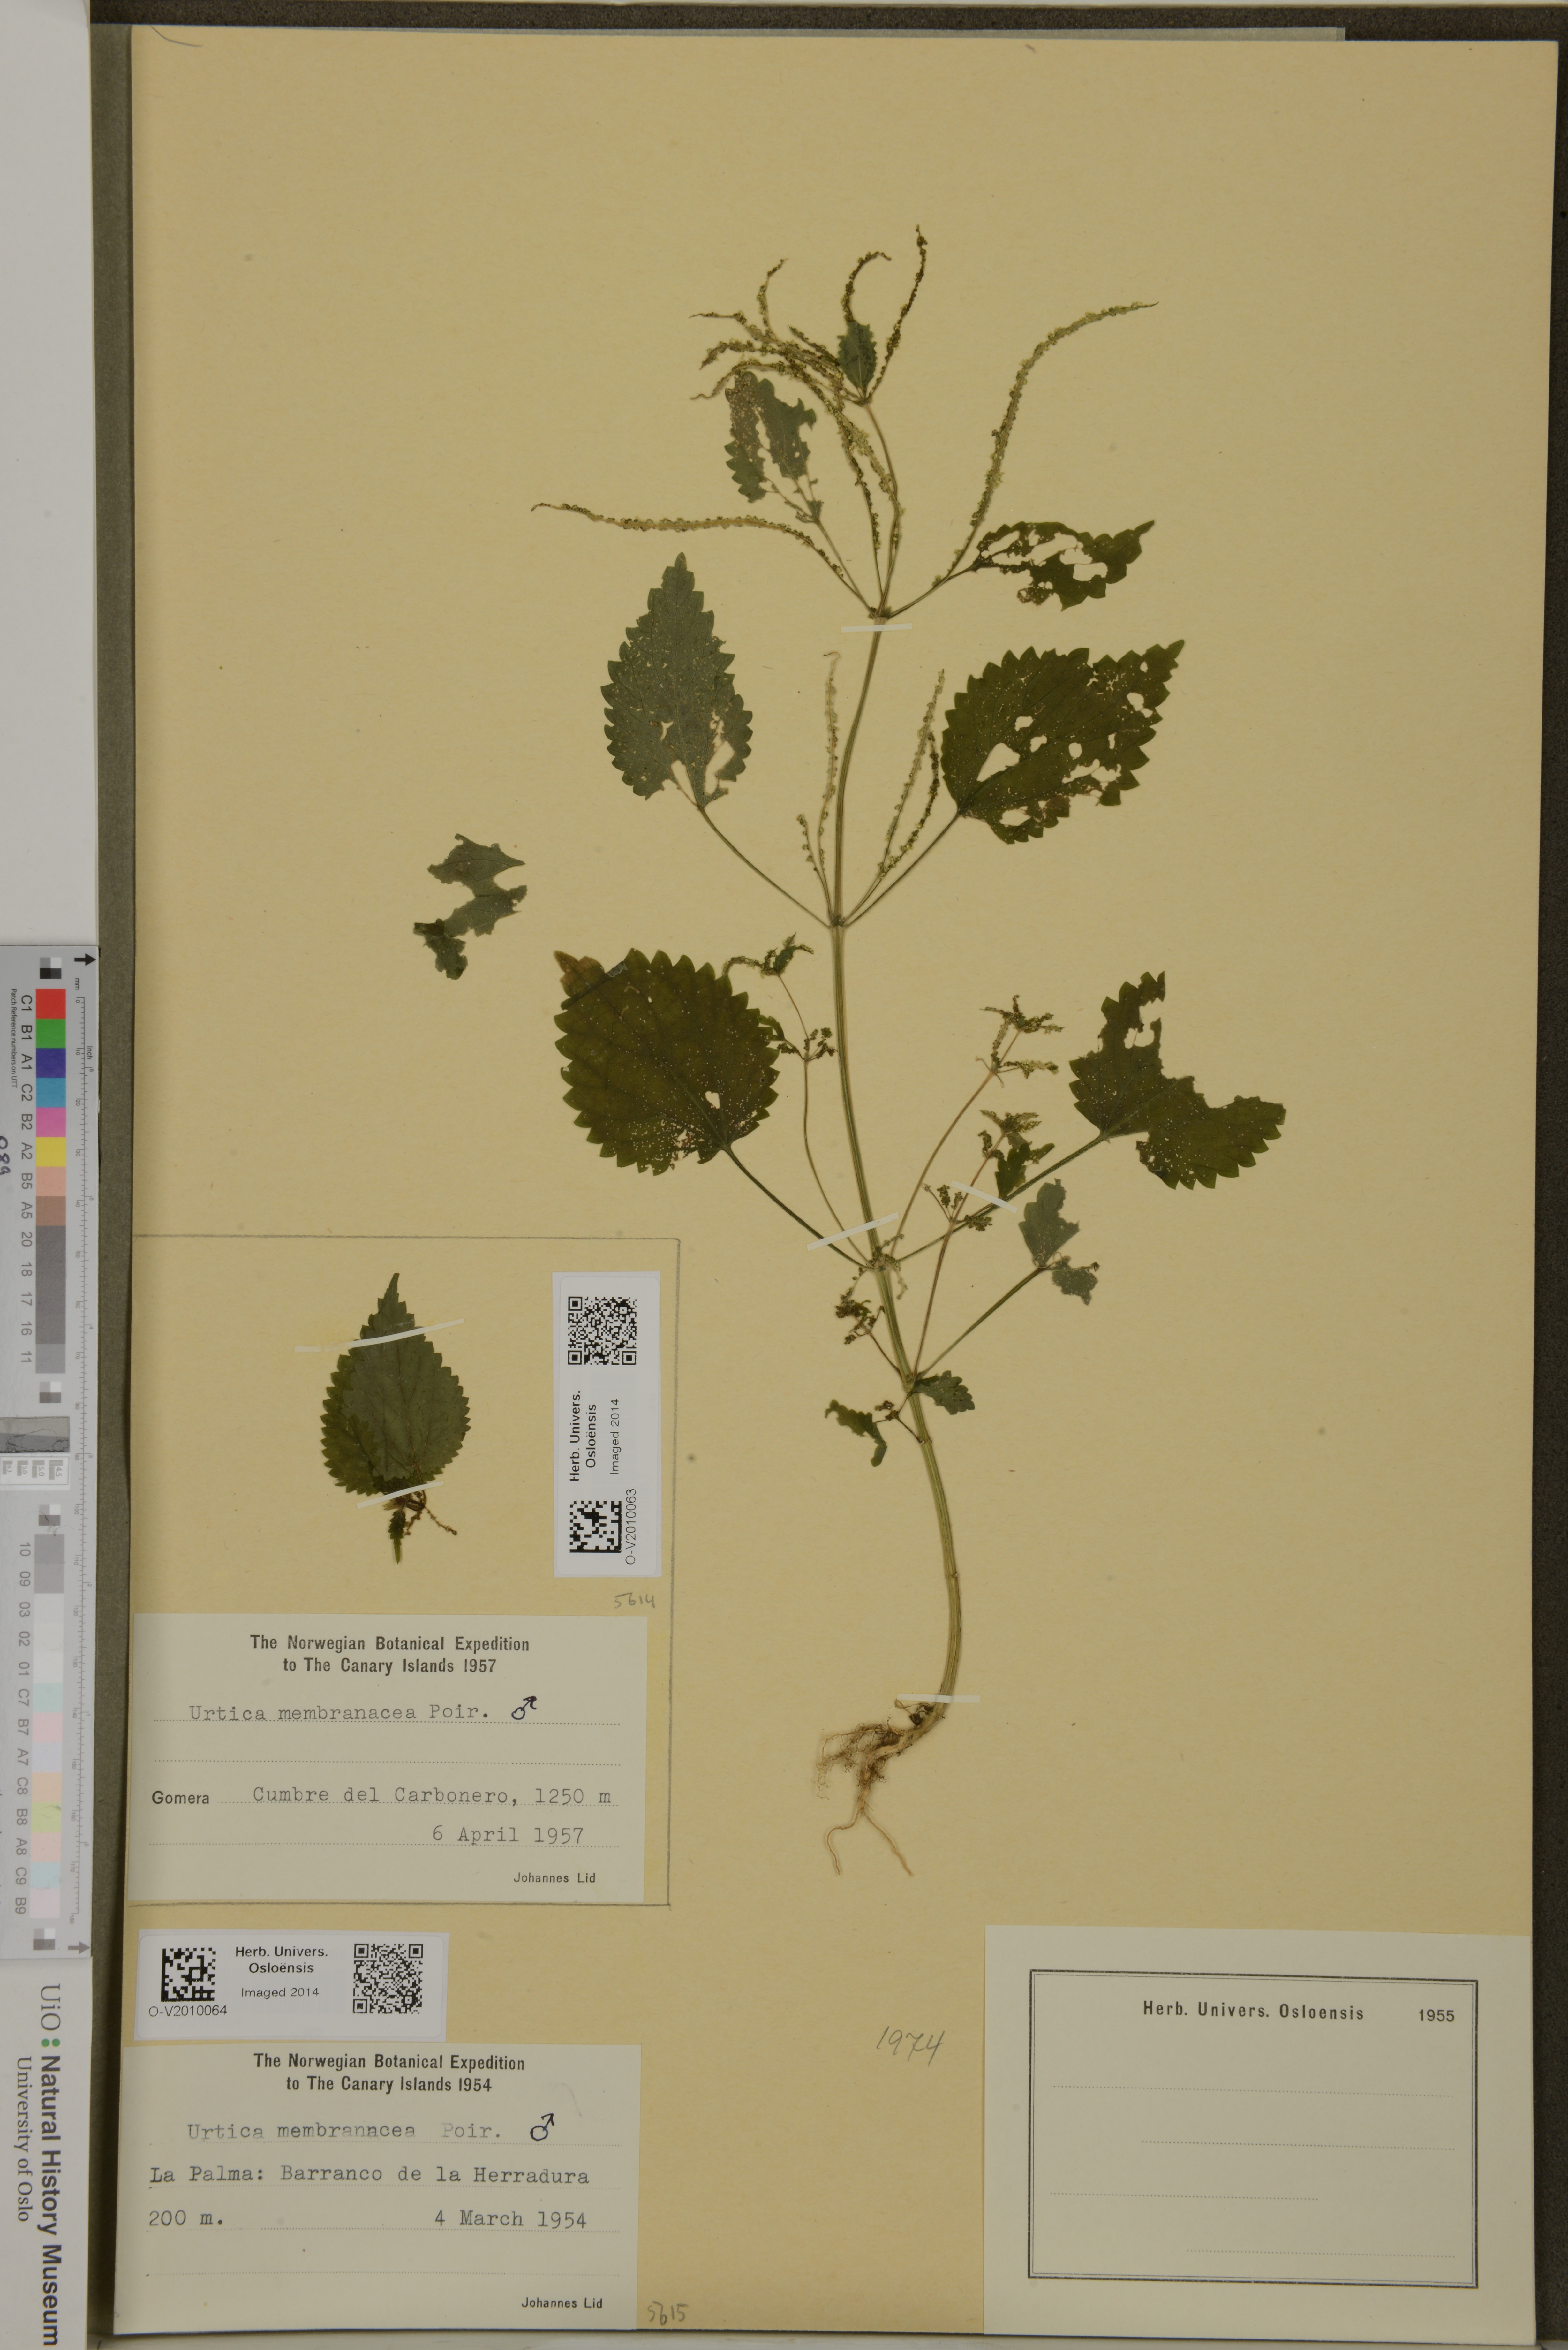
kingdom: Plantae
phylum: Tracheophyta
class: Magnoliopsida
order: Rosales
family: Urticaceae
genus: Urtica
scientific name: Urtica membranacea
